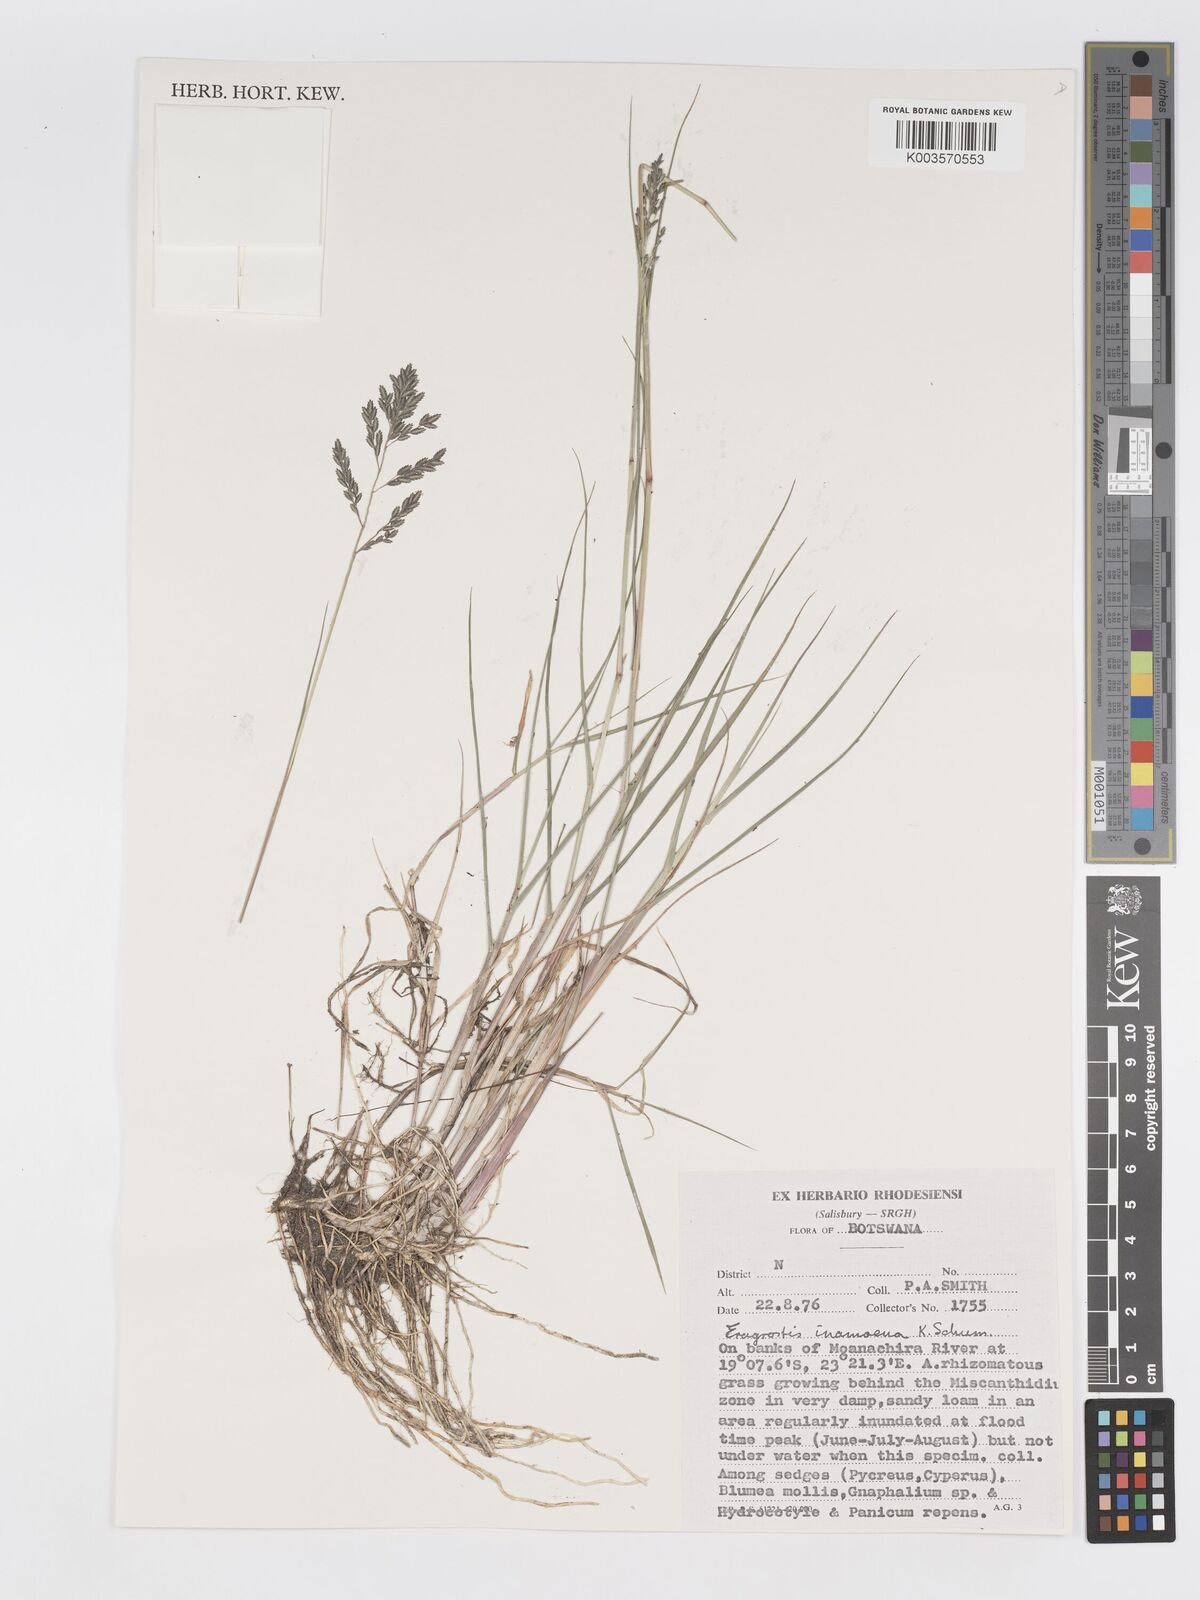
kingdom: Plantae
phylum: Tracheophyta
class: Liliopsida
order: Poales
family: Poaceae
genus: Eragrostis
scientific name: Eragrostis inamoena
